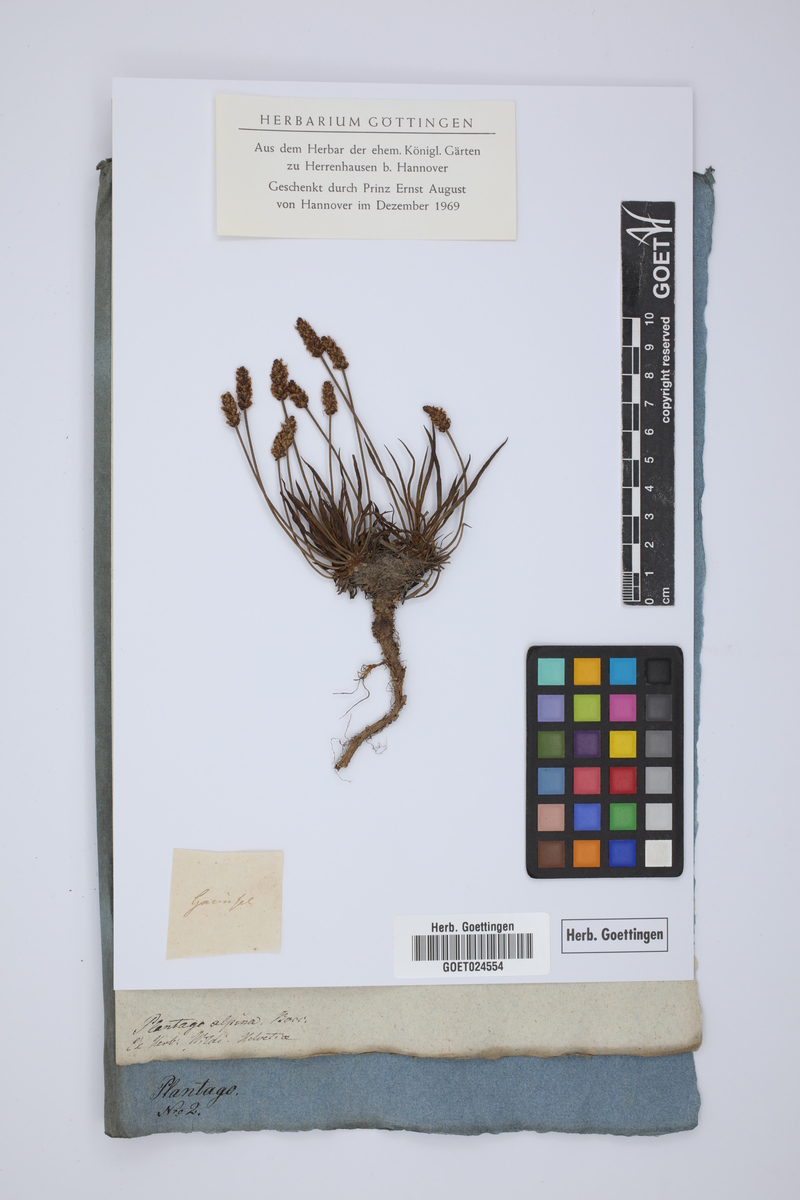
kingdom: Plantae
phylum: Tracheophyta
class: Magnoliopsida
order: Lamiales
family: Plantaginaceae
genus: Plantago
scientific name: Plantago alpina
